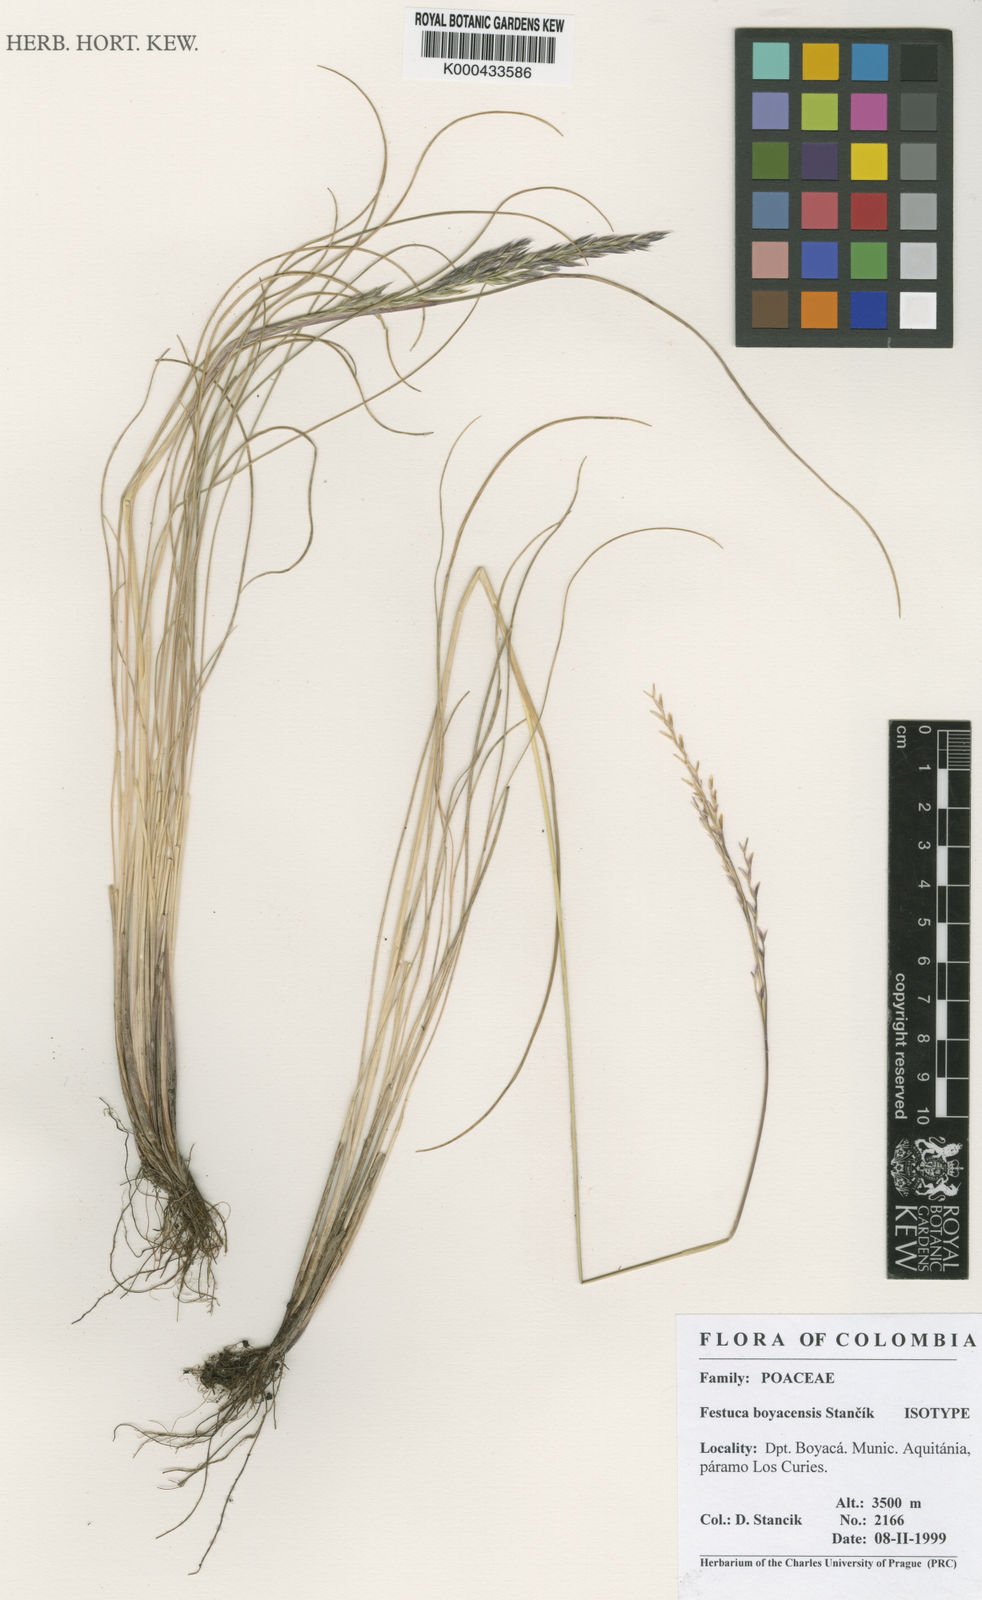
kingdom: Plantae
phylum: Tracheophyta
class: Liliopsida
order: Poales
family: Poaceae
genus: Festuca
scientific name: Festuca boyacensis
